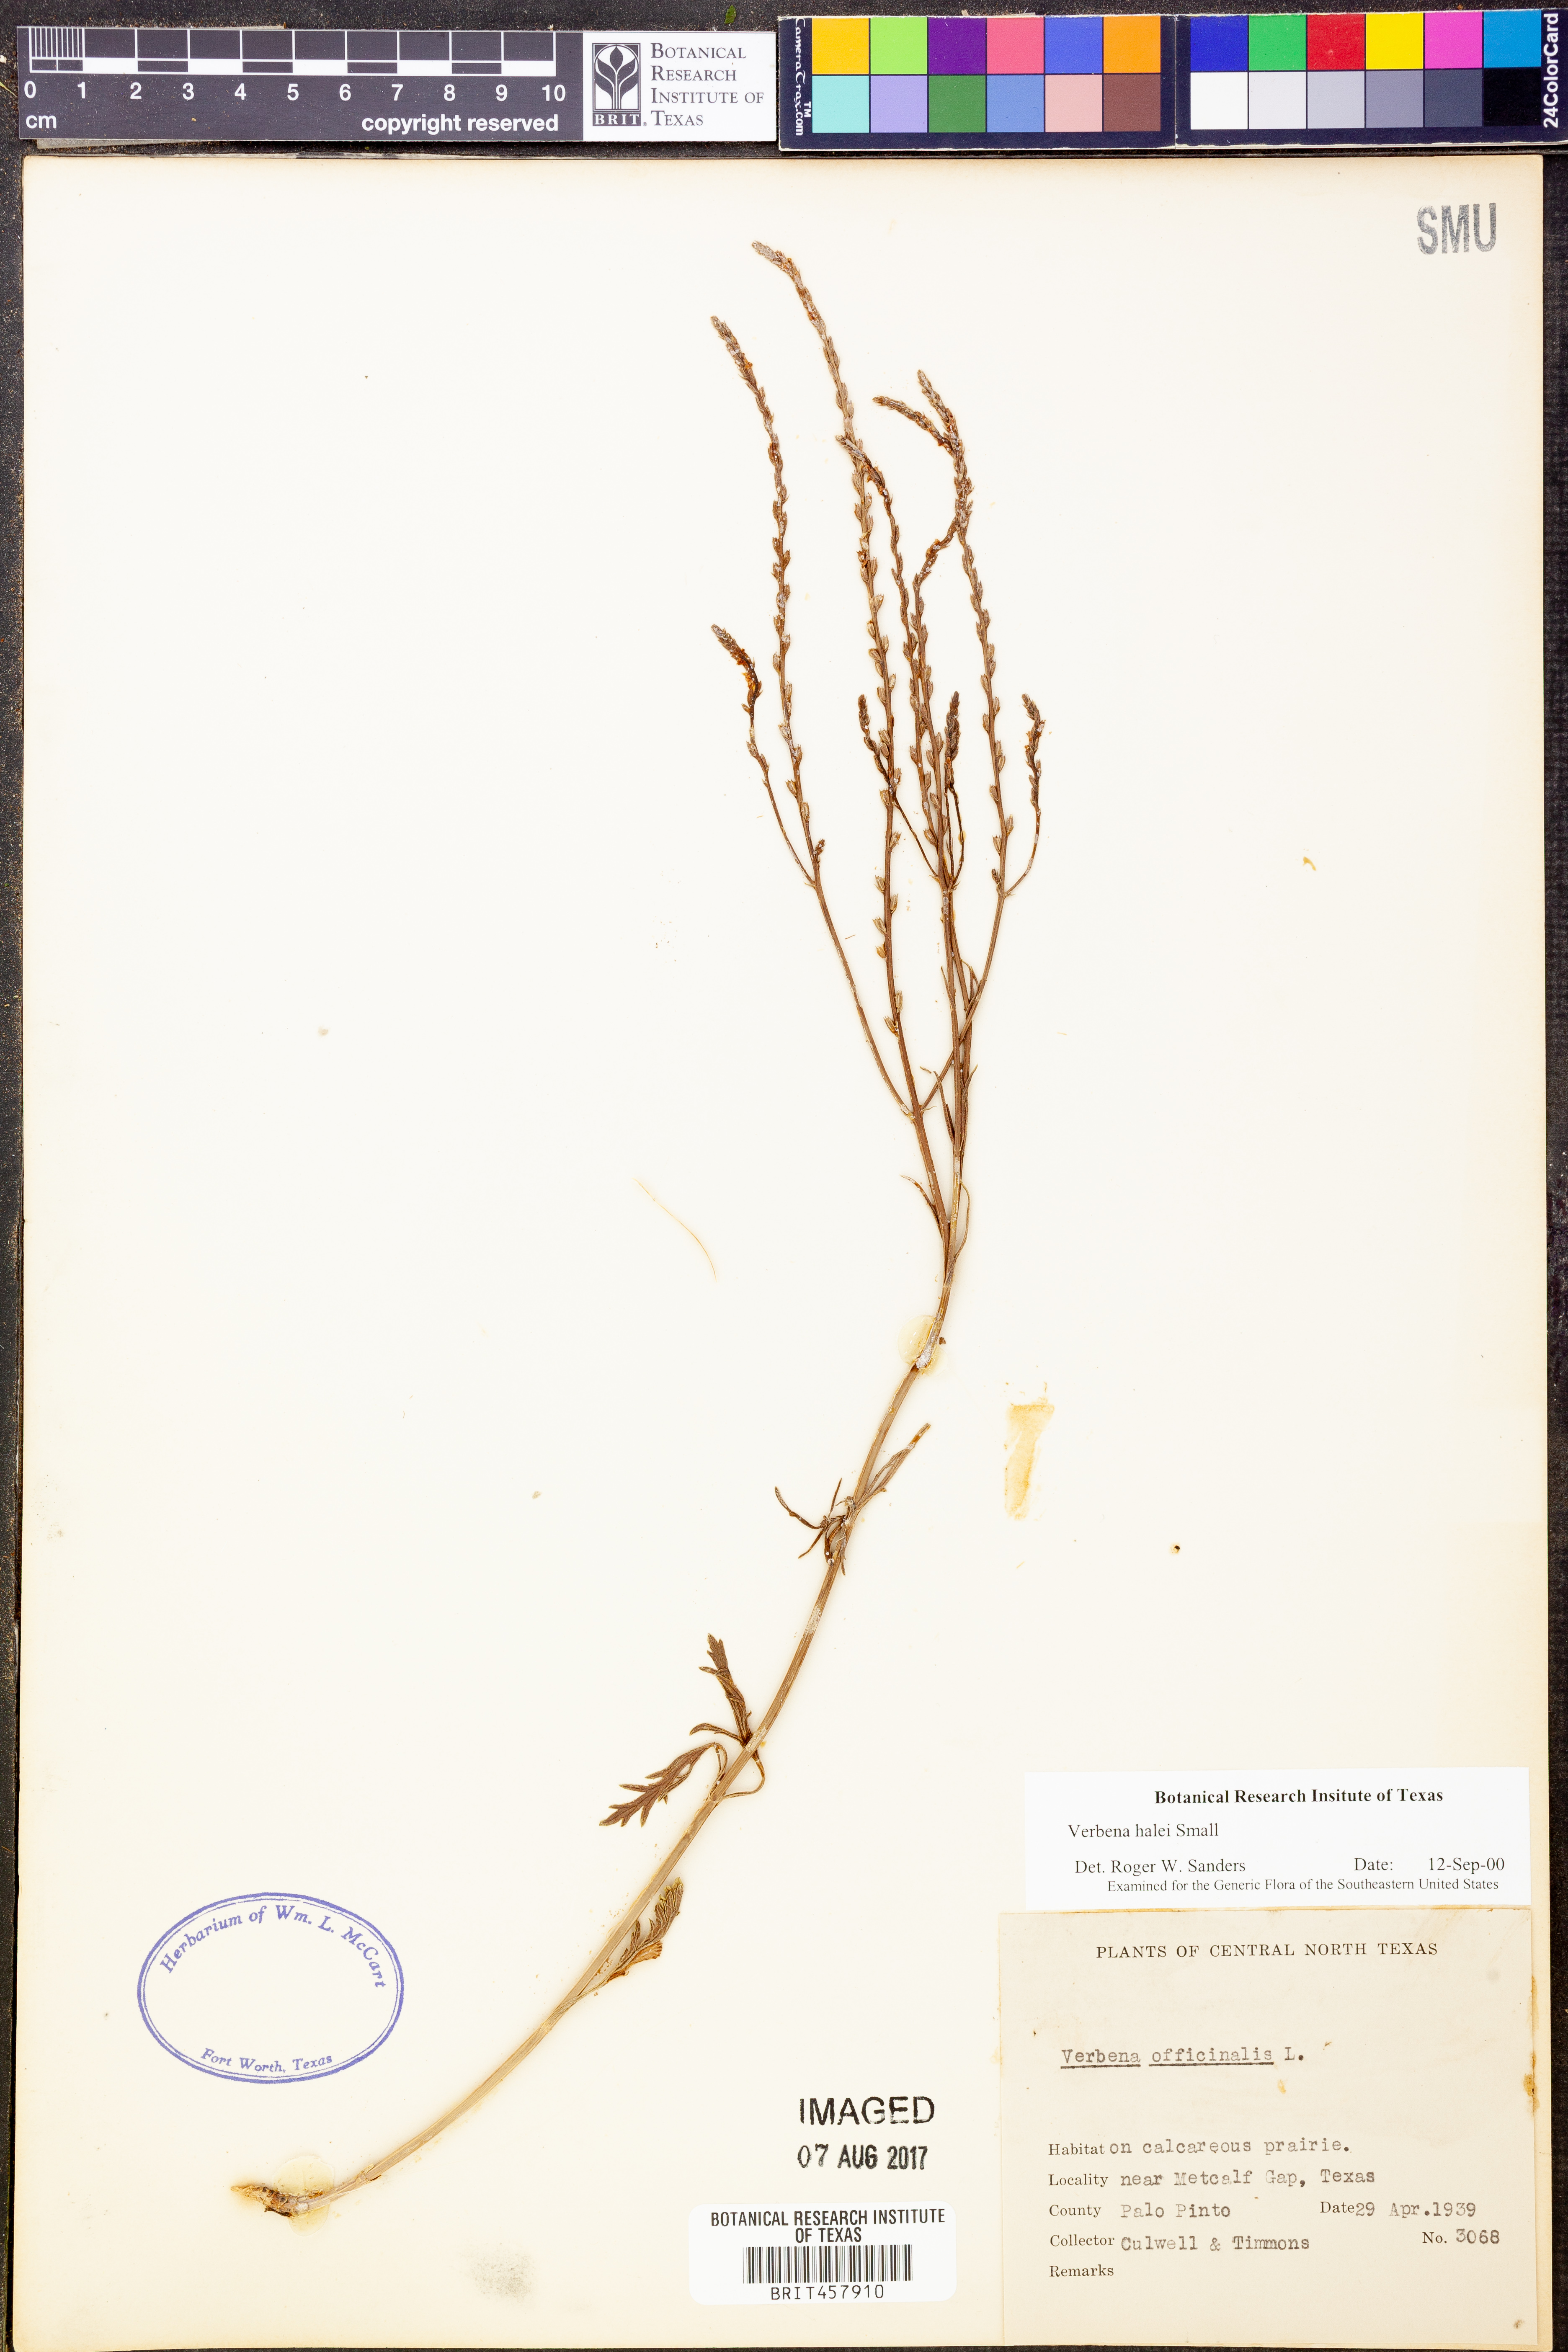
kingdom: Plantae
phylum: Tracheophyta
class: Magnoliopsida
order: Lamiales
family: Verbenaceae
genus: Verbena
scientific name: Verbena halei
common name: Texas vervain
